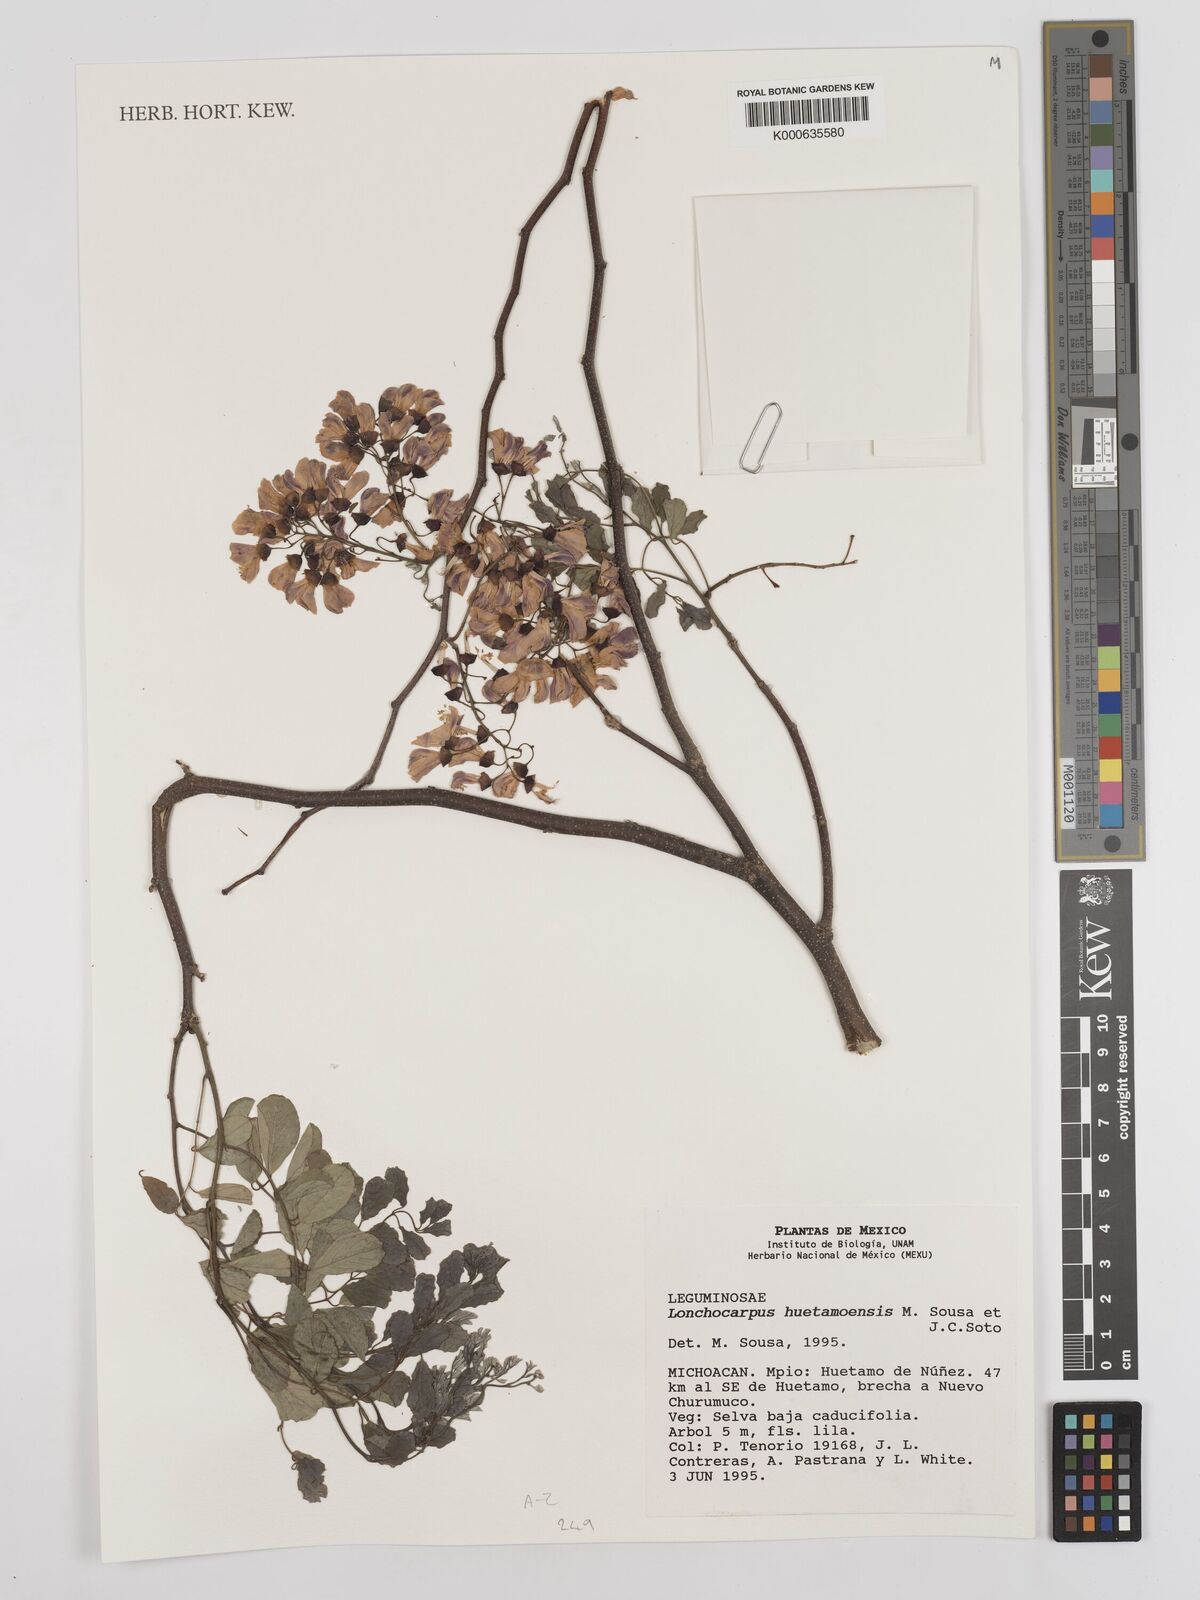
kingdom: Plantae
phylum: Tracheophyta
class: Magnoliopsida
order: Fabales
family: Fabaceae
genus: Lonchocarpus
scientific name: Lonchocarpus huetamoensis
